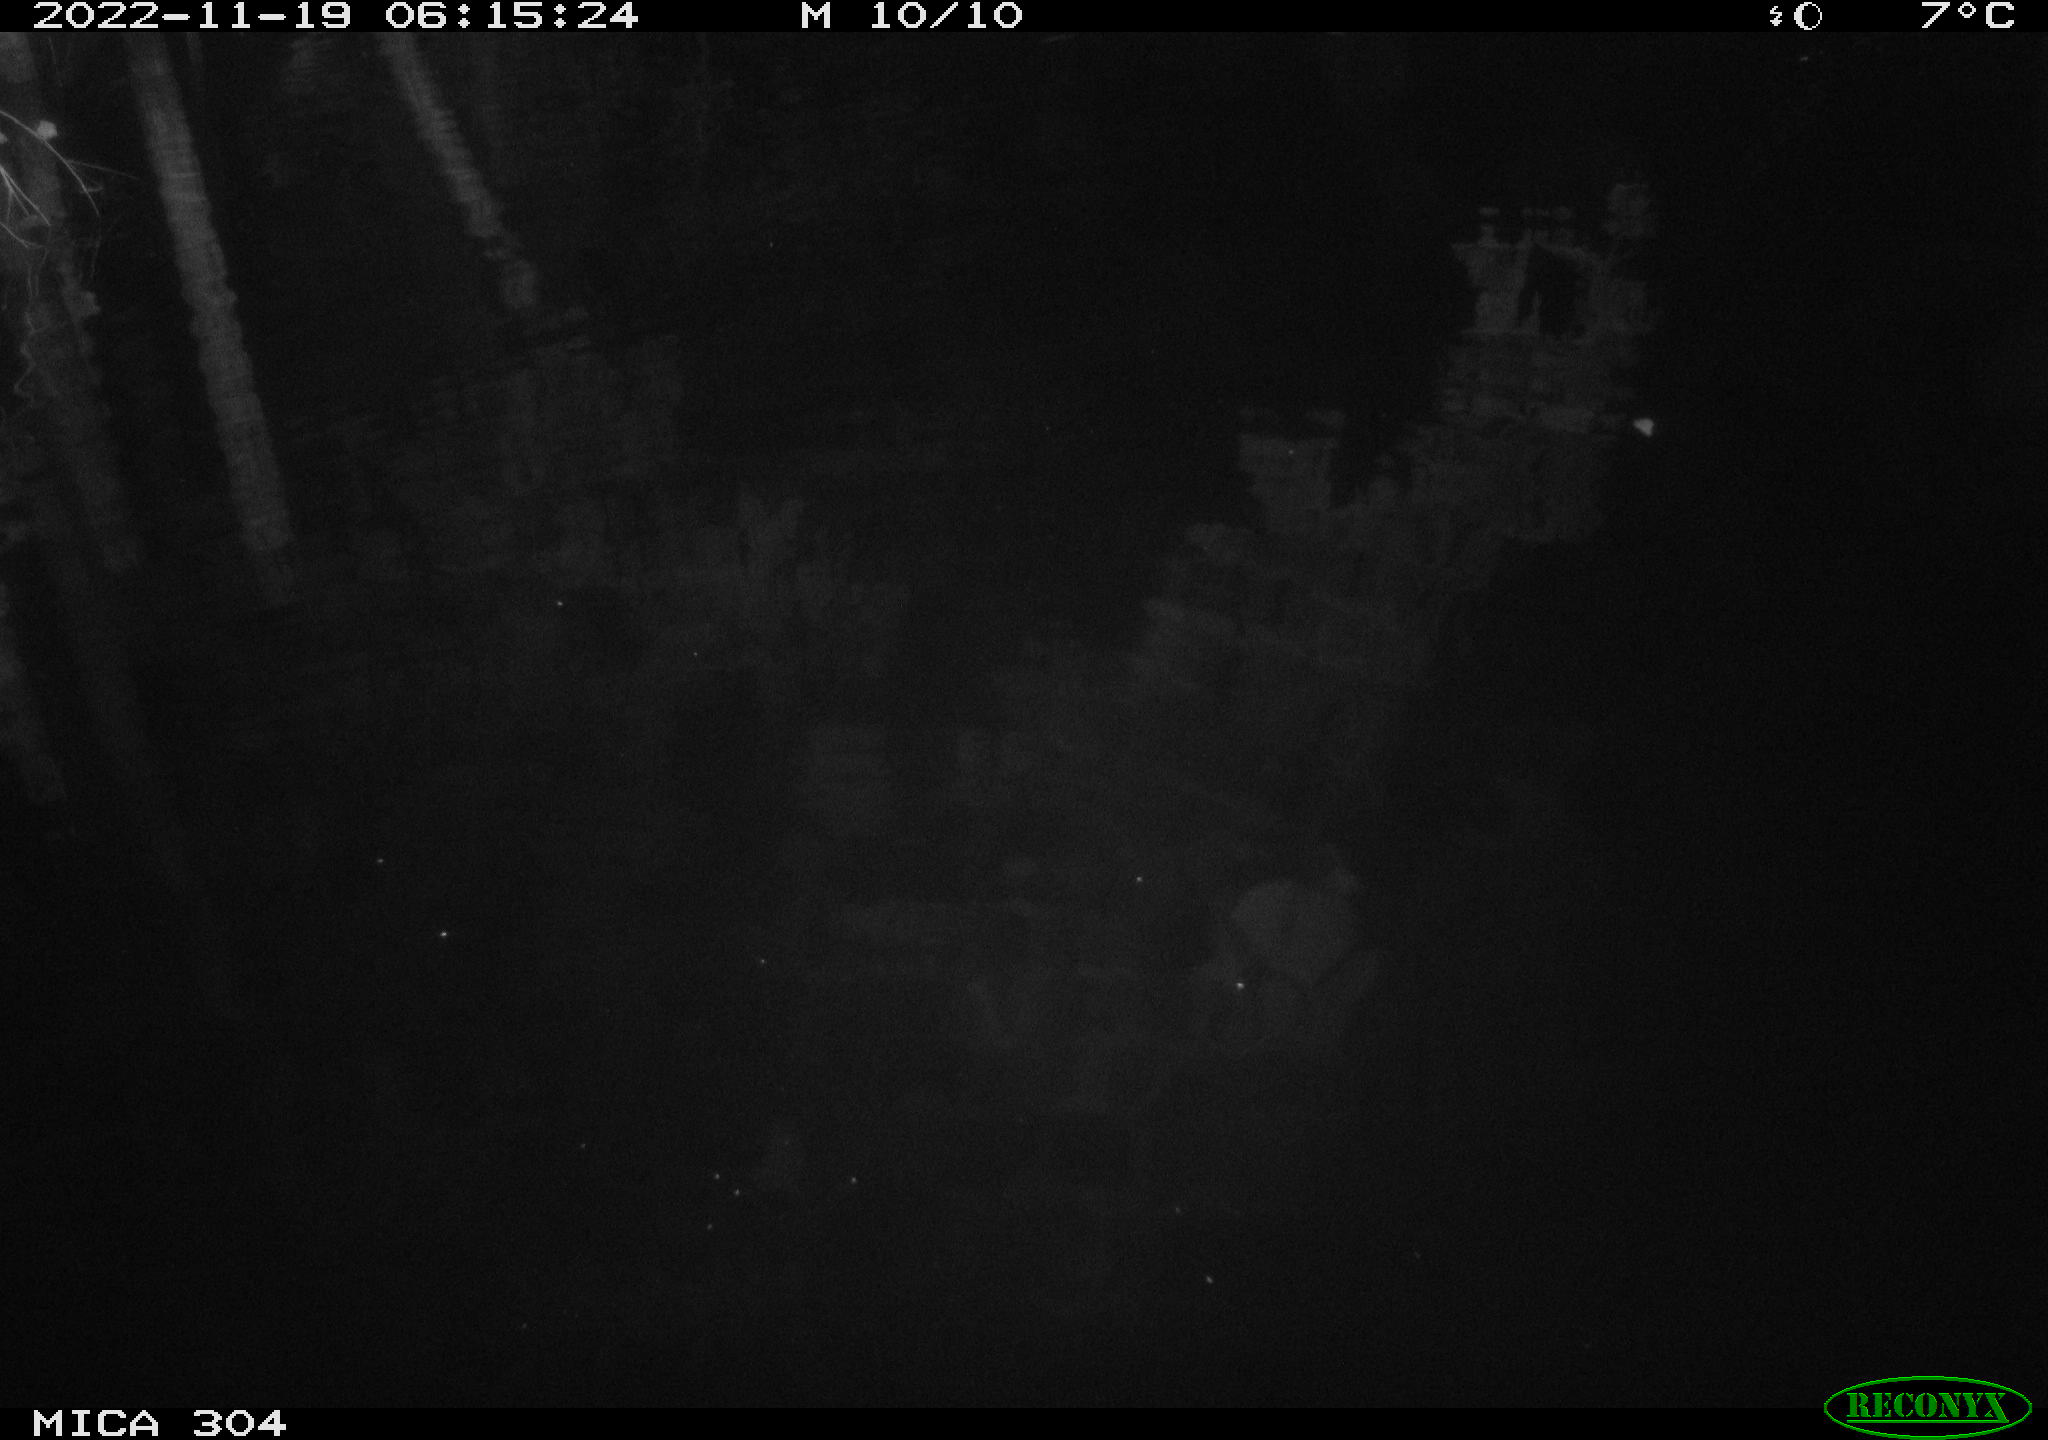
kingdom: Animalia
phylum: Chordata
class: Mammalia
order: Rodentia
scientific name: Rodentia
